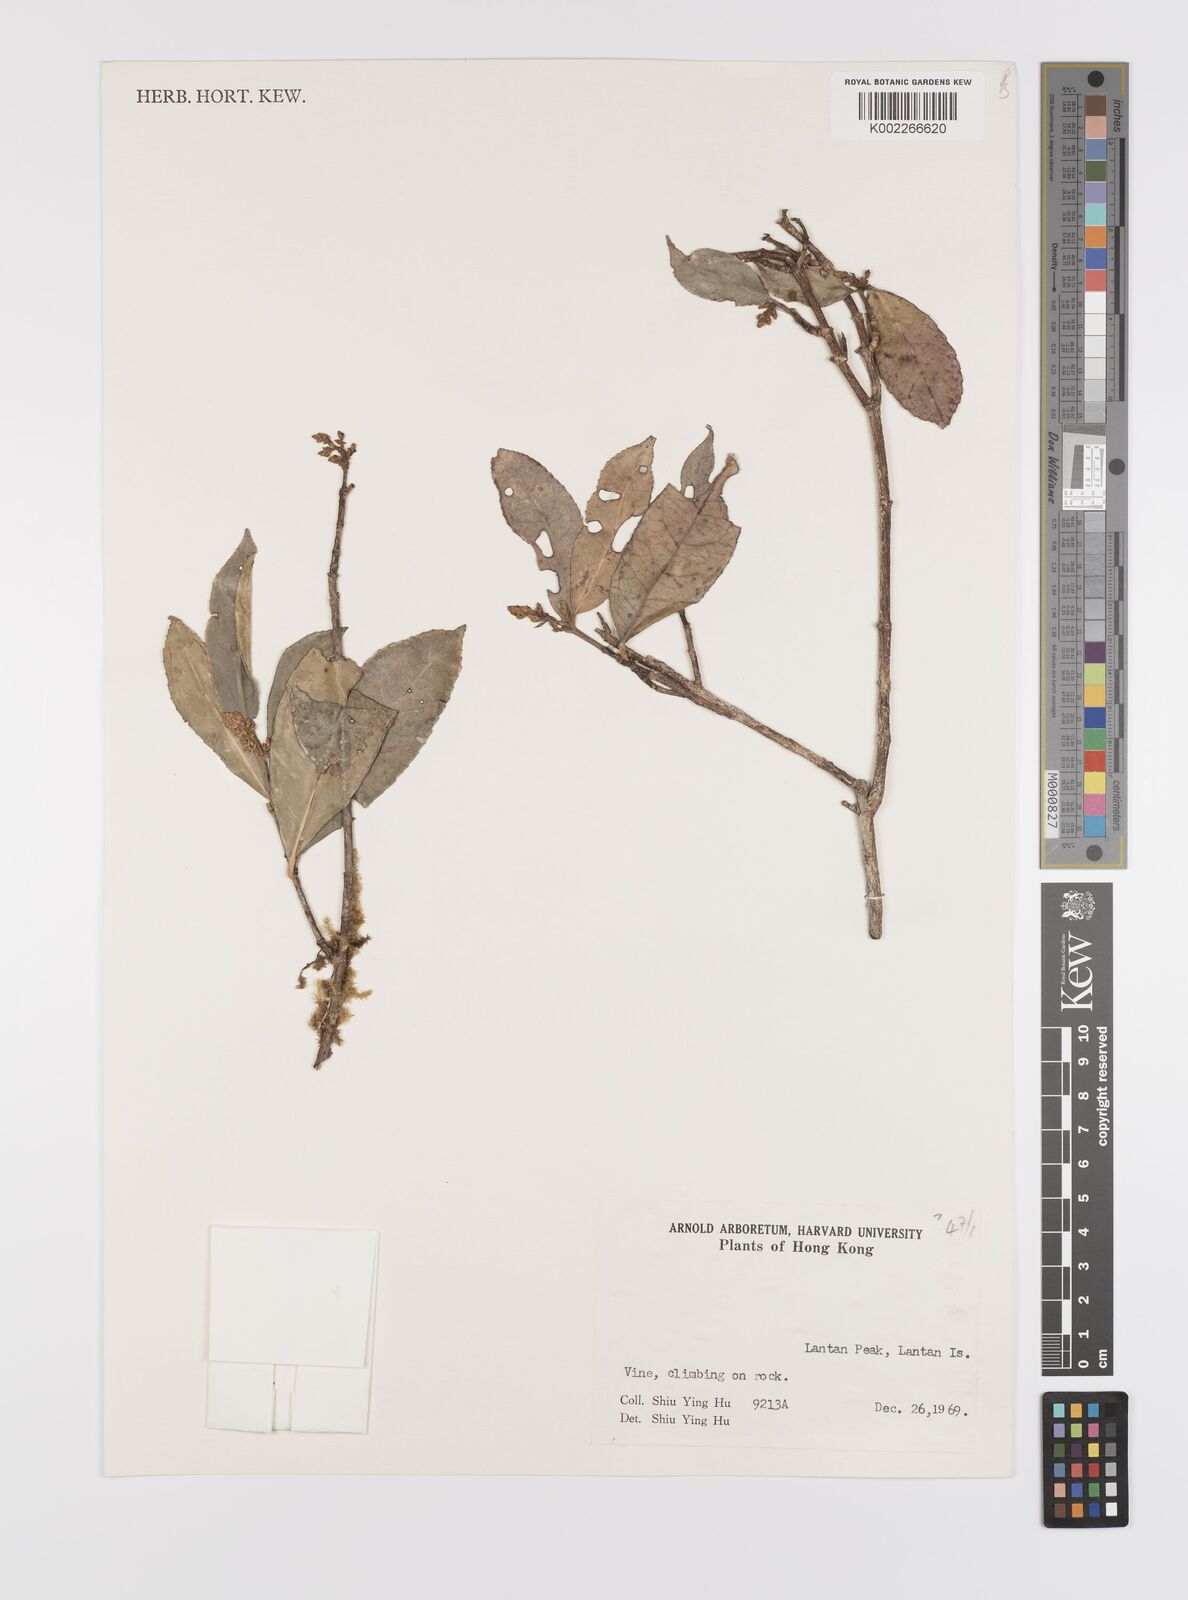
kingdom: Plantae
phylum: Tracheophyta
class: Magnoliopsida
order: Celastrales
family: Celastraceae
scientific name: Celastraceae
